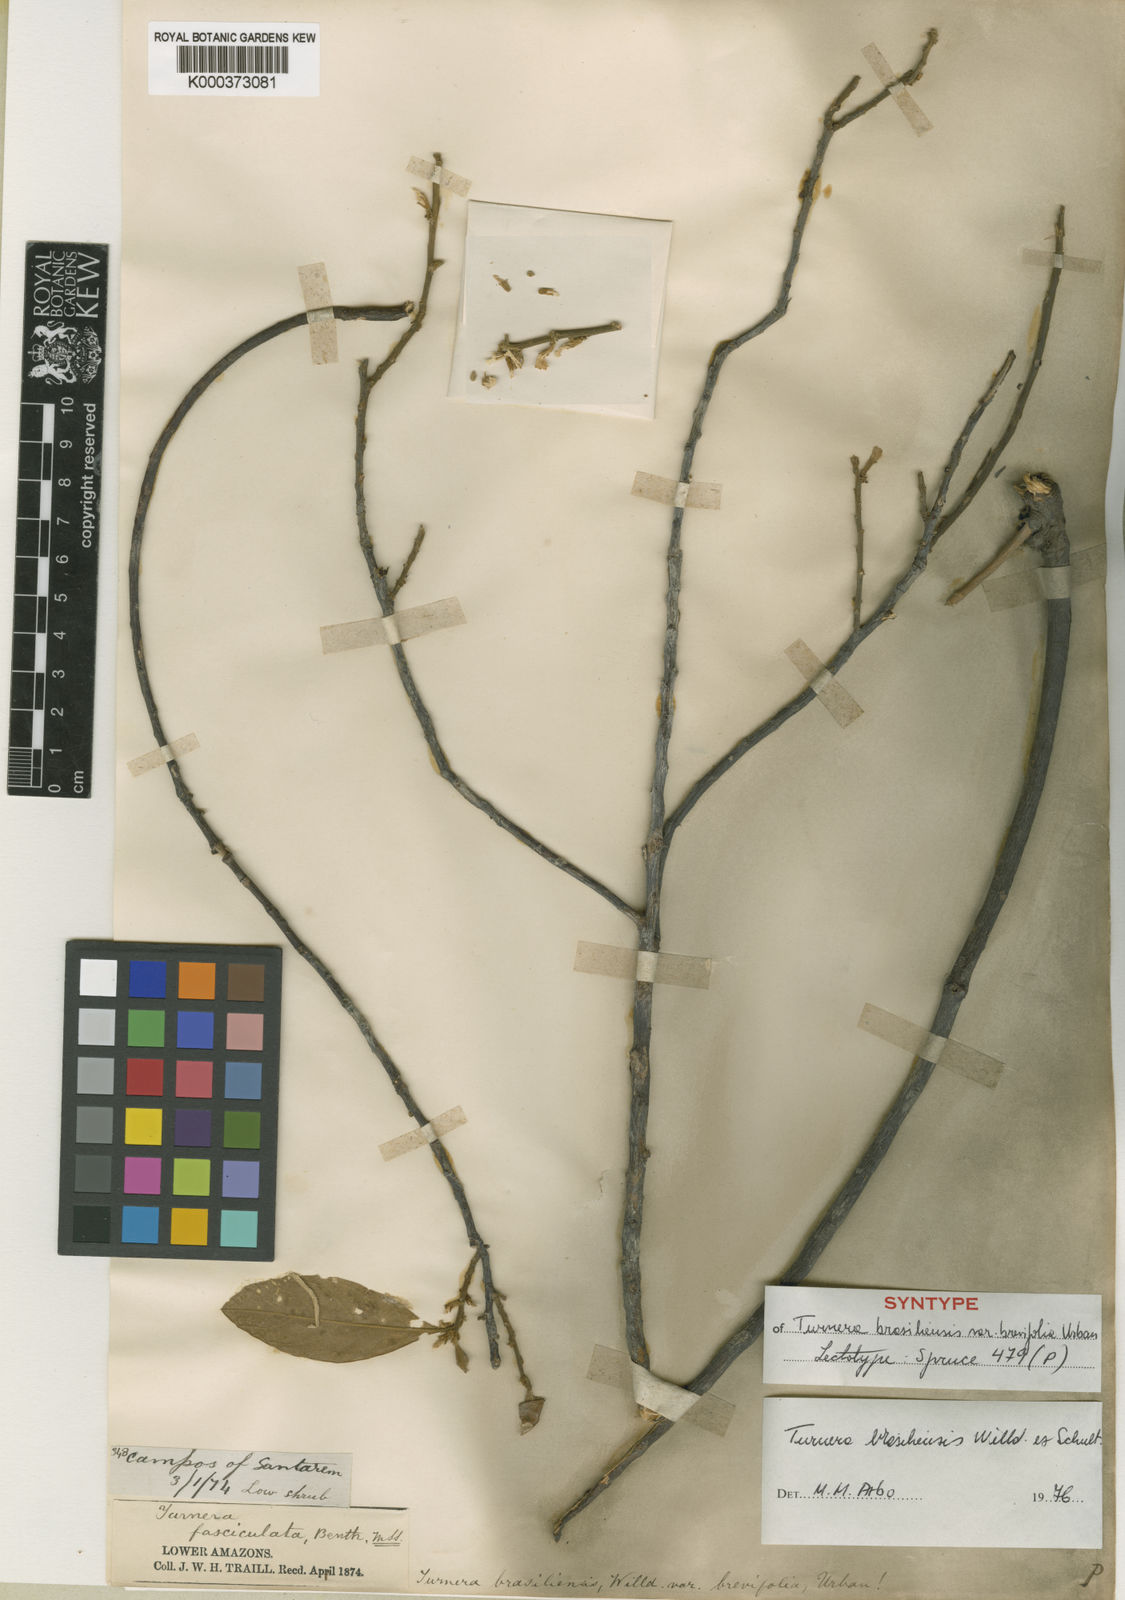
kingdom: Plantae
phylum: Tracheophyta
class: Magnoliopsida
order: Malpighiales
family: Turneraceae
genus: Turnera
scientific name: Turnera brasiliensis
